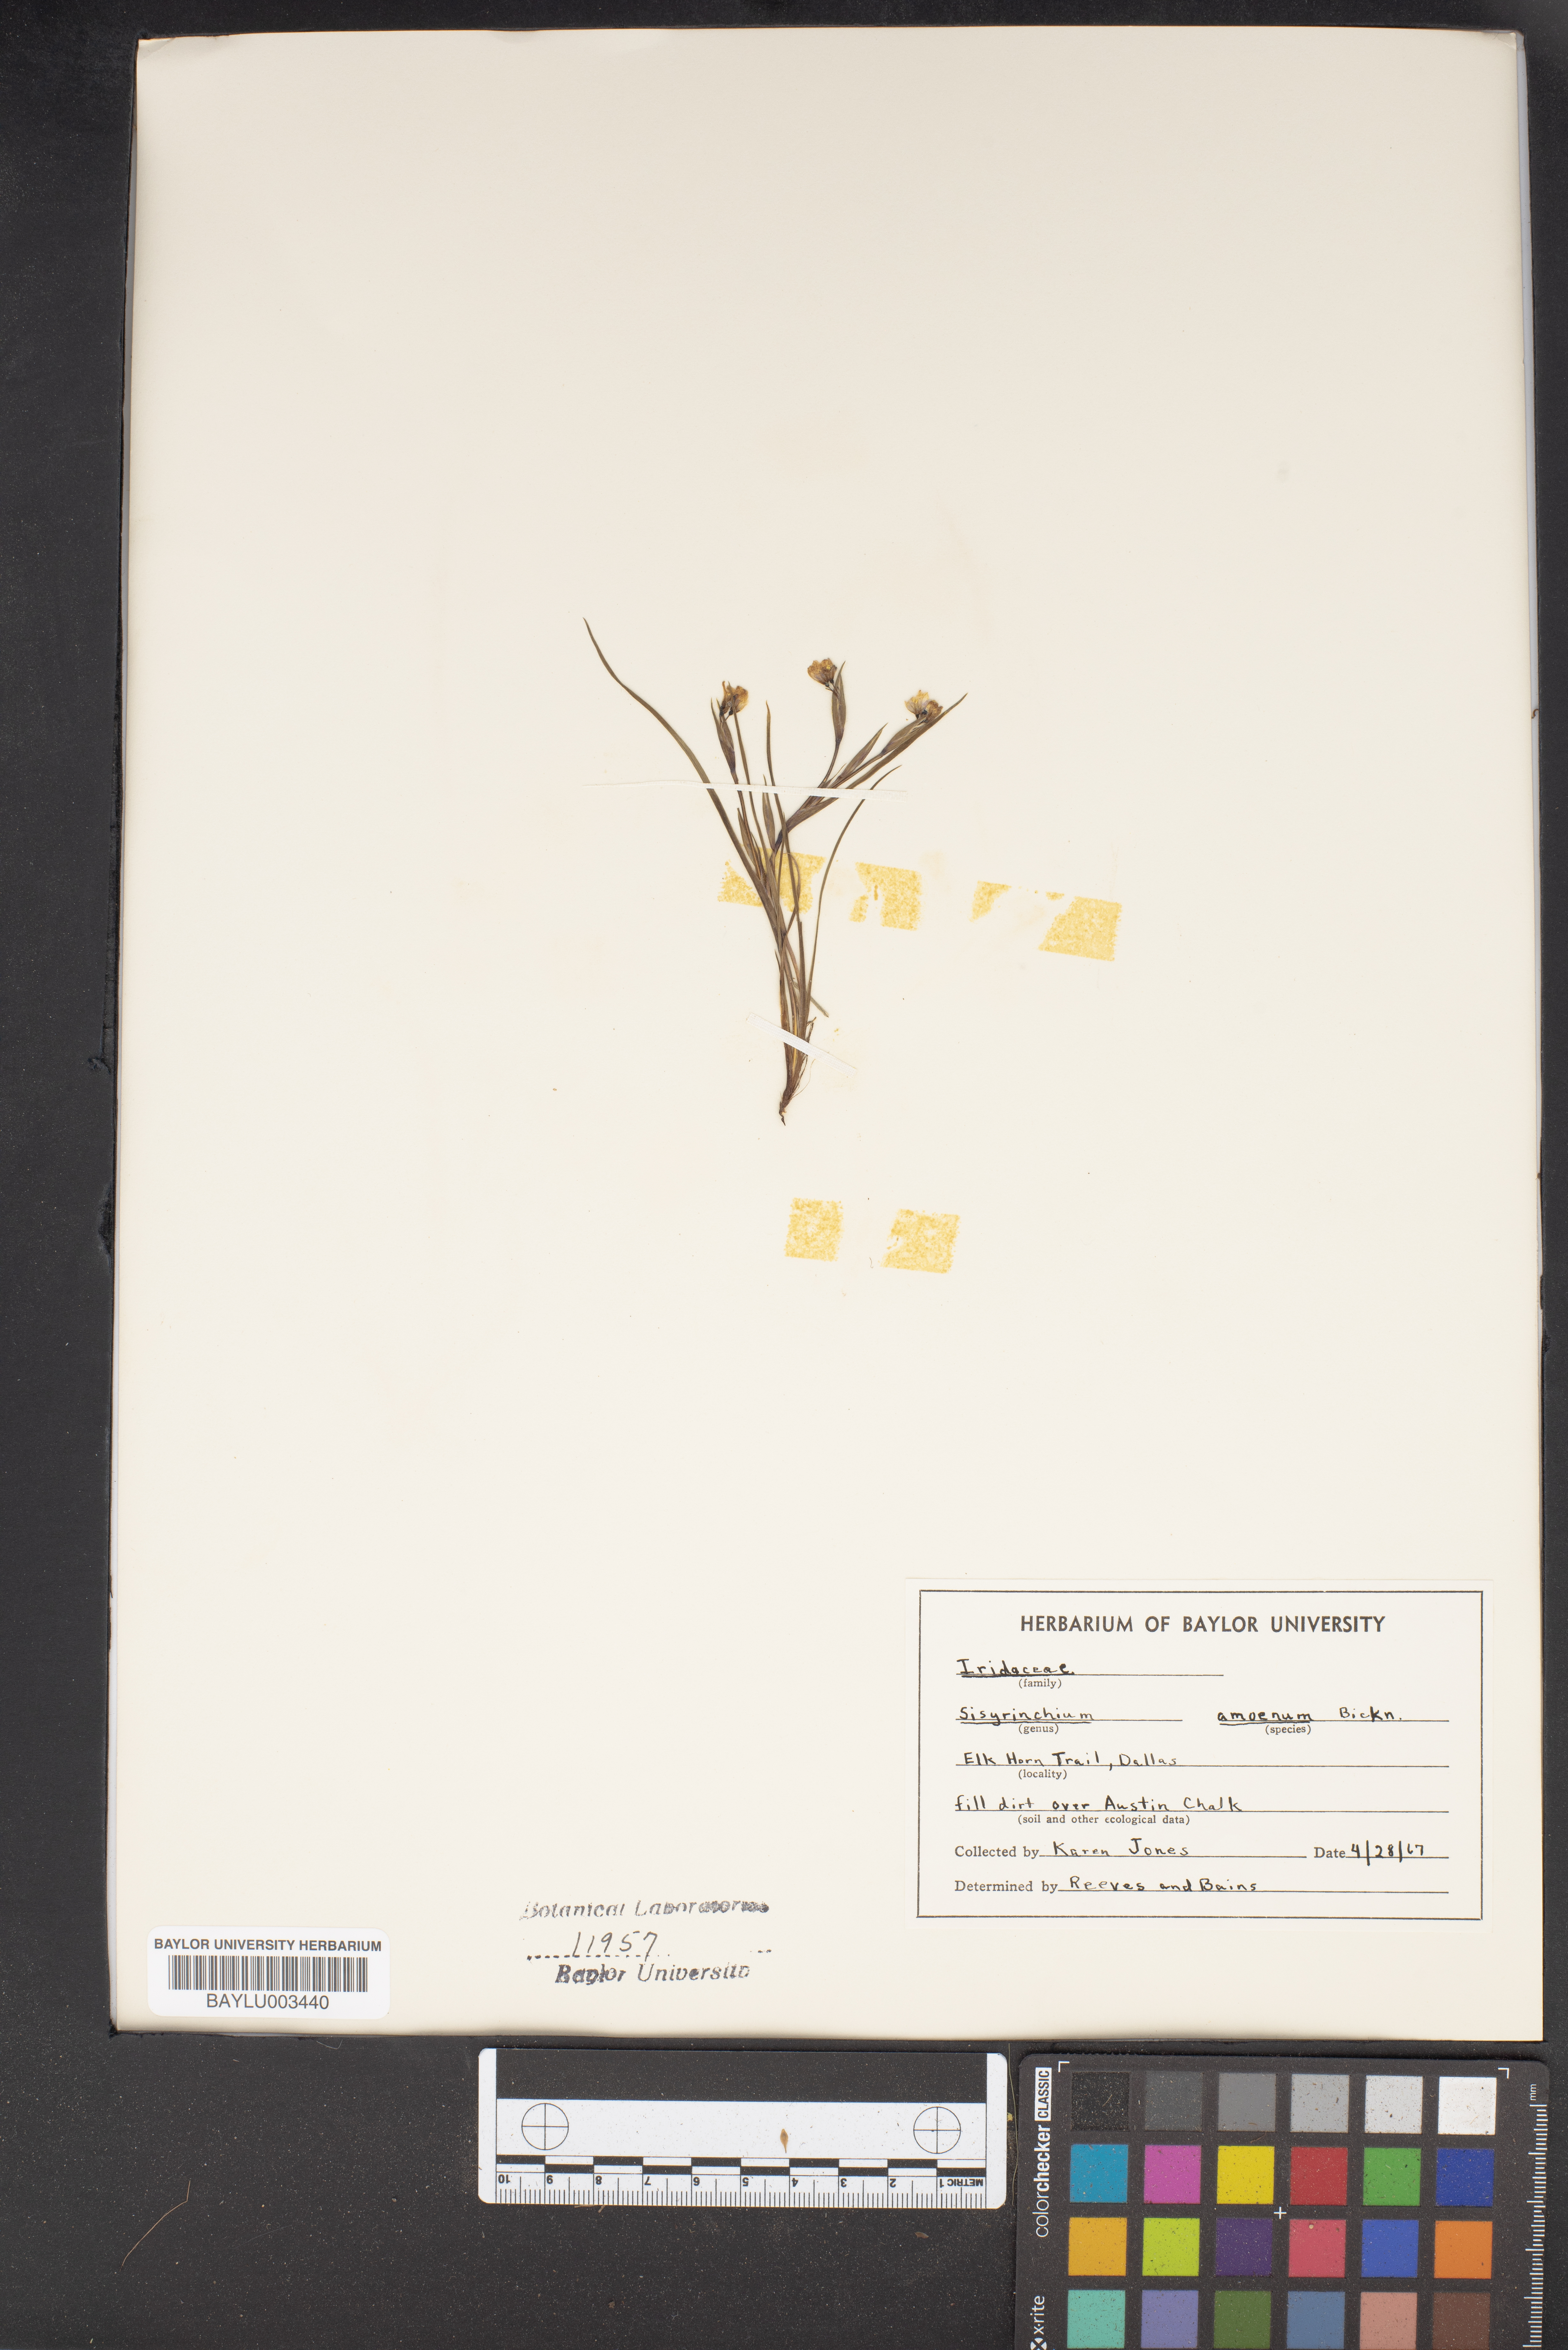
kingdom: Plantae
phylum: Tracheophyta
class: Liliopsida
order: Asparagales
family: Iridaceae
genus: Sisyrinchium
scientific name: Sisyrinchium ensigerum
